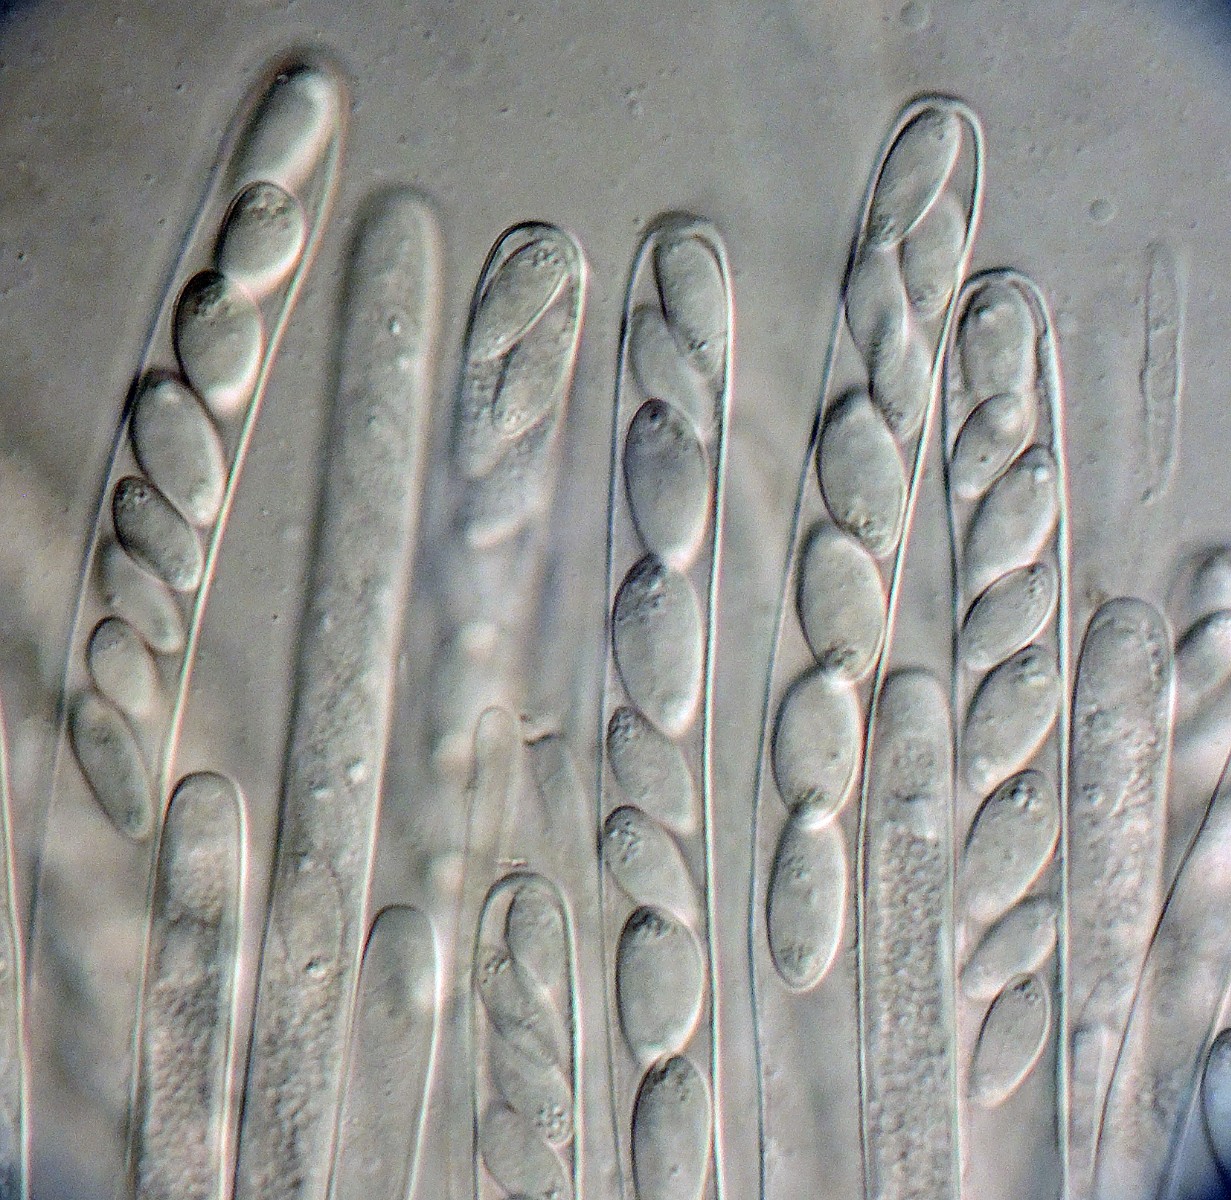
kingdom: Fungi
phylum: Ascomycota
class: Leotiomycetes
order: Helotiales
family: Sclerotiniaceae
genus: Sclerotinia
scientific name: Sclerotinia trifoliorum
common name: ærte-knoldskive
